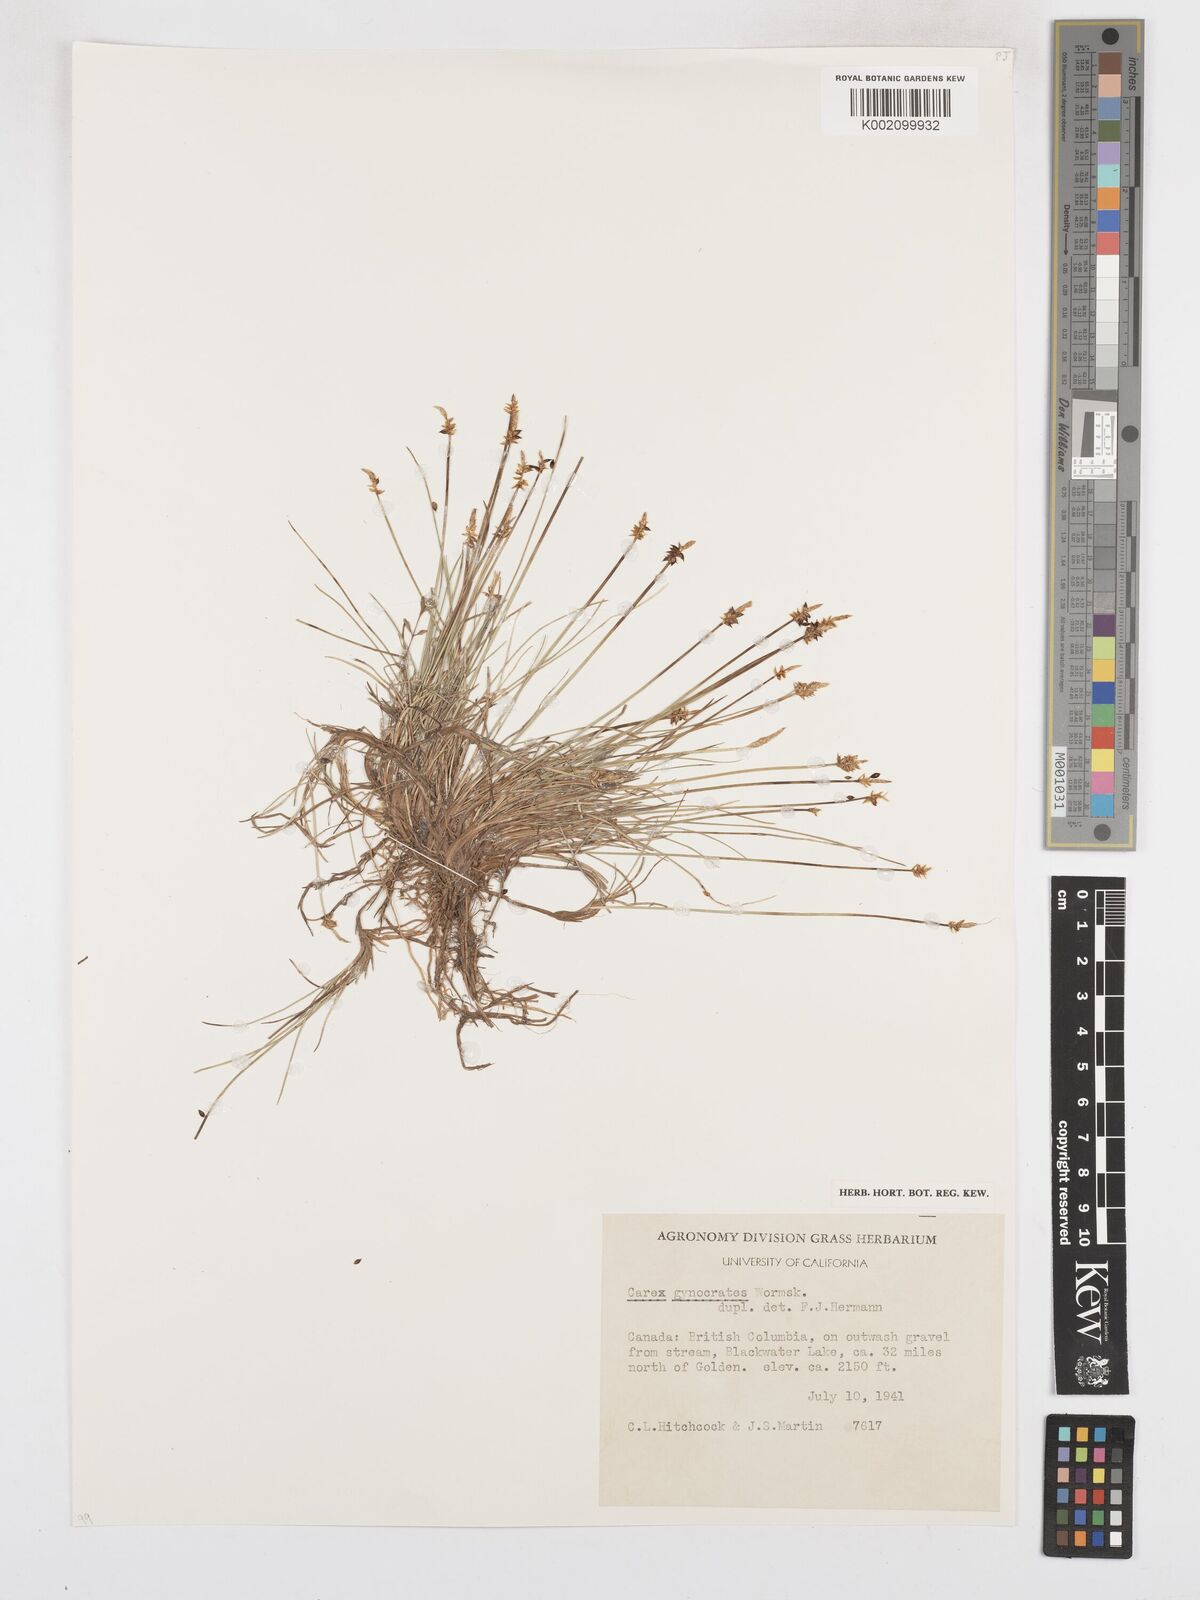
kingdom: Plantae
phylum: Tracheophyta
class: Liliopsida
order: Poales
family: Cyperaceae
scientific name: Cyperaceae
